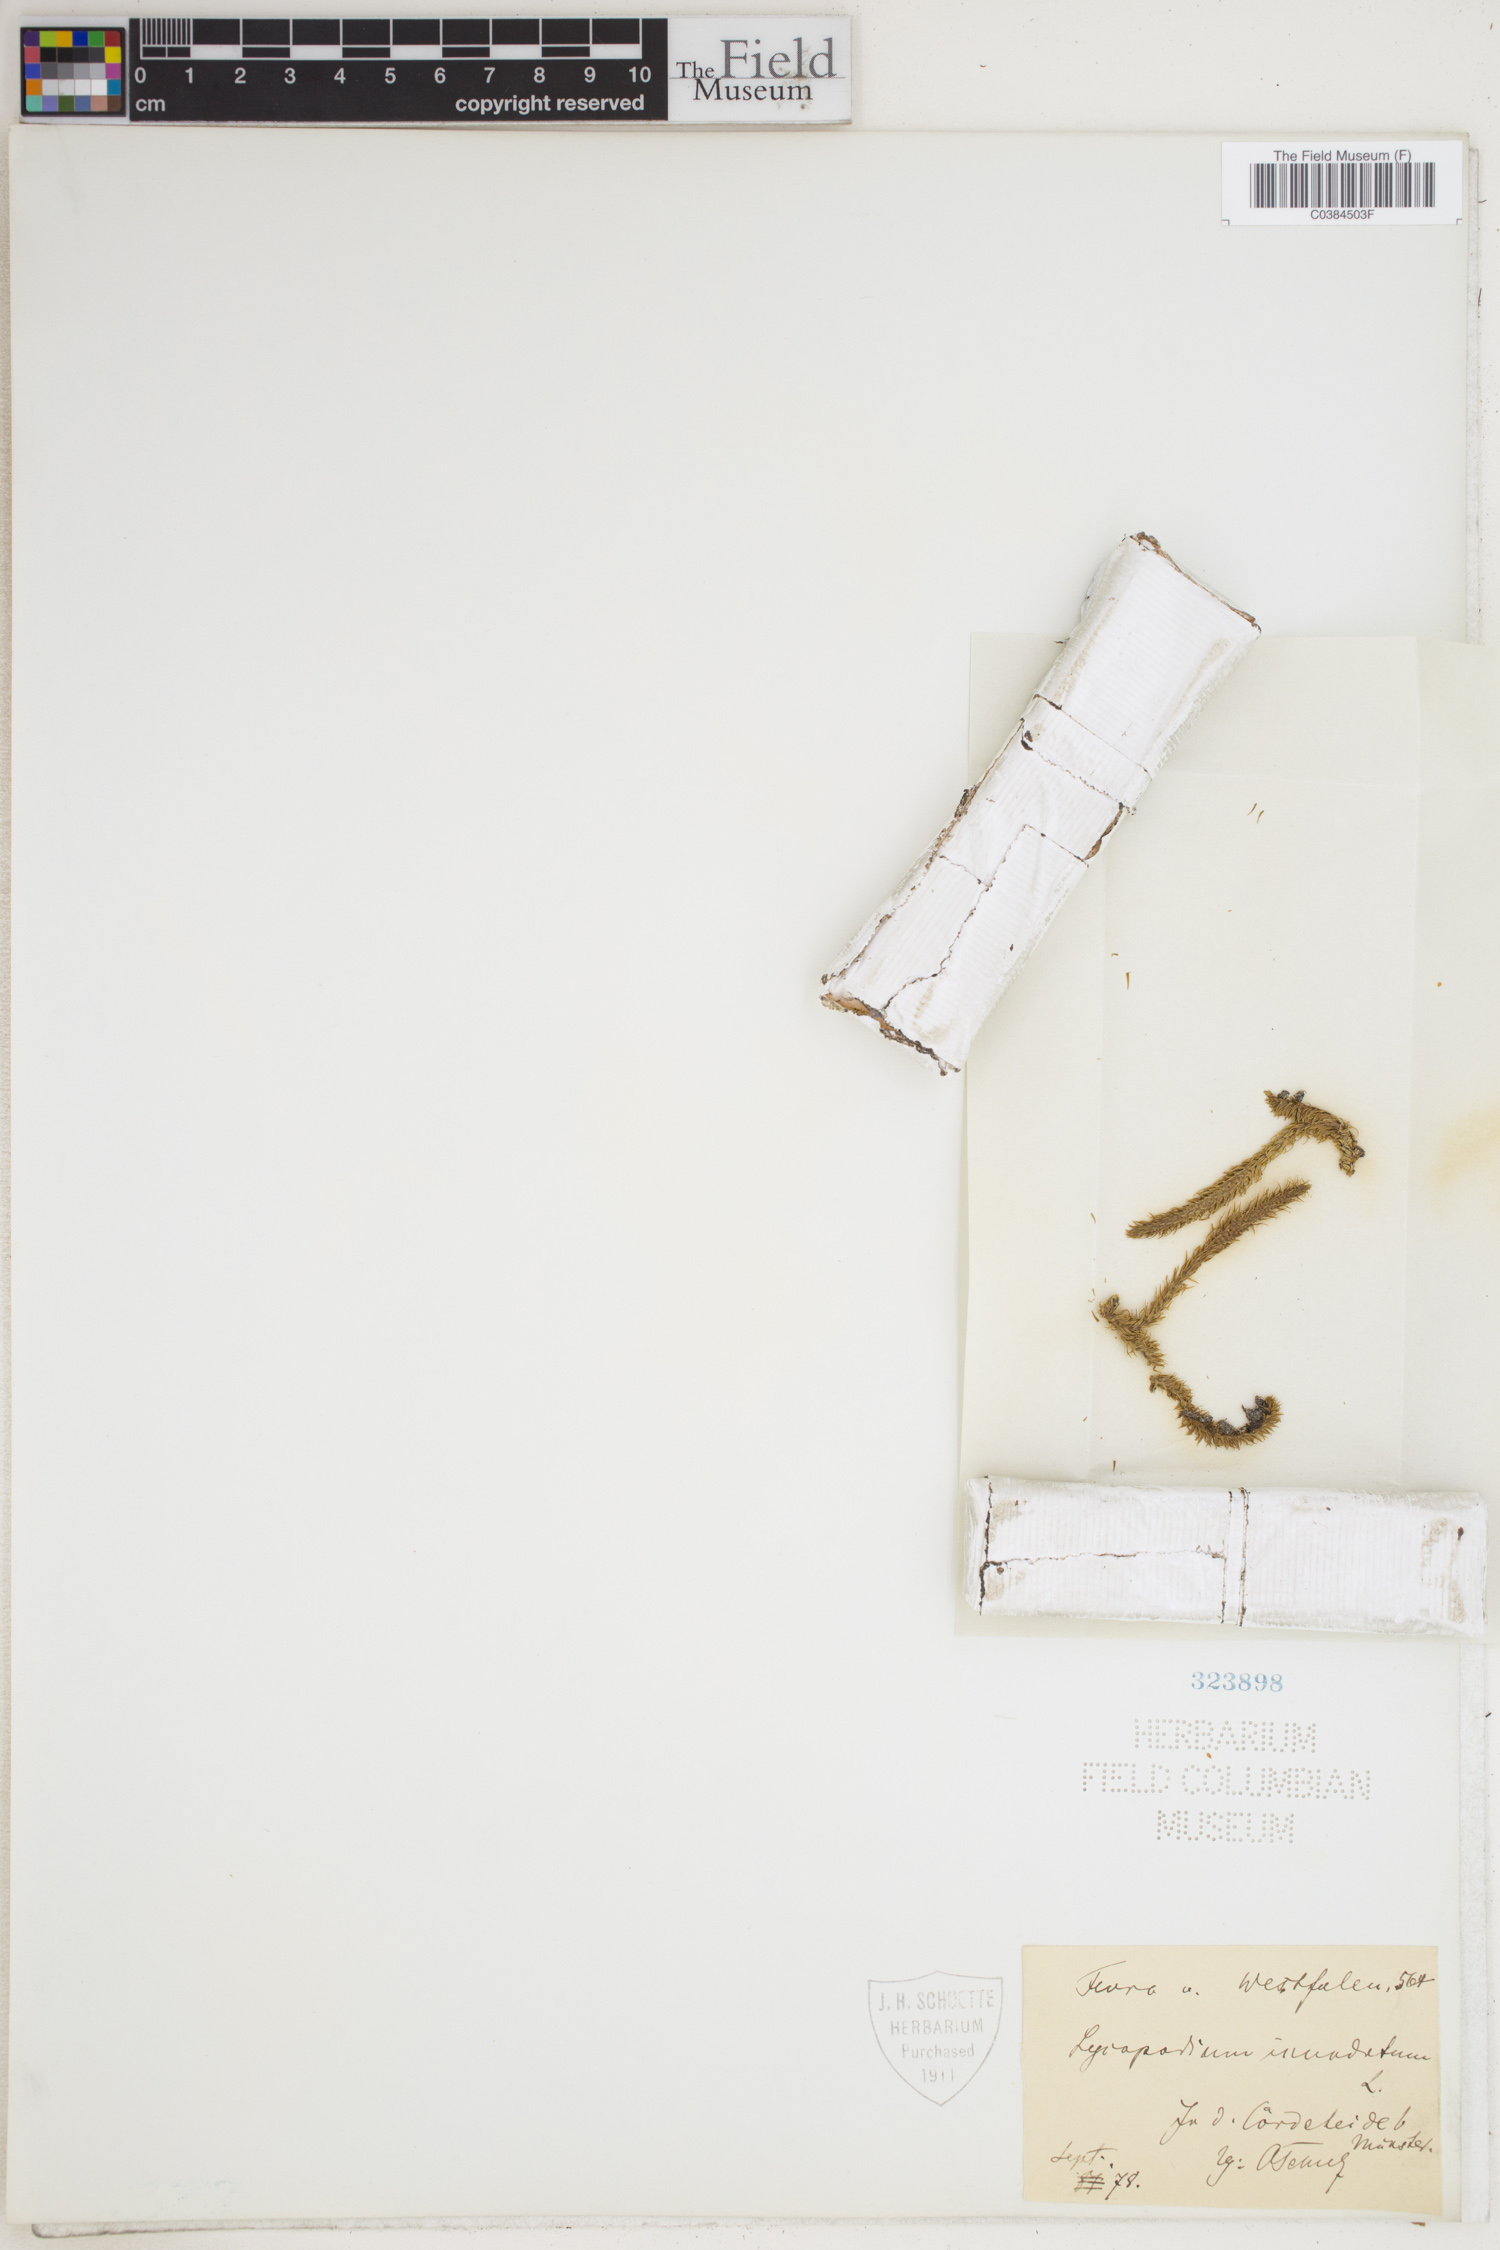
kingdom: Plantae
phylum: Tracheophyta
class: Lycopodiopsida
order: Lycopodiales
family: Lycopodiaceae
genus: Lycopodiella
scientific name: Lycopodiella inundata
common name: Marsh clubmoss
